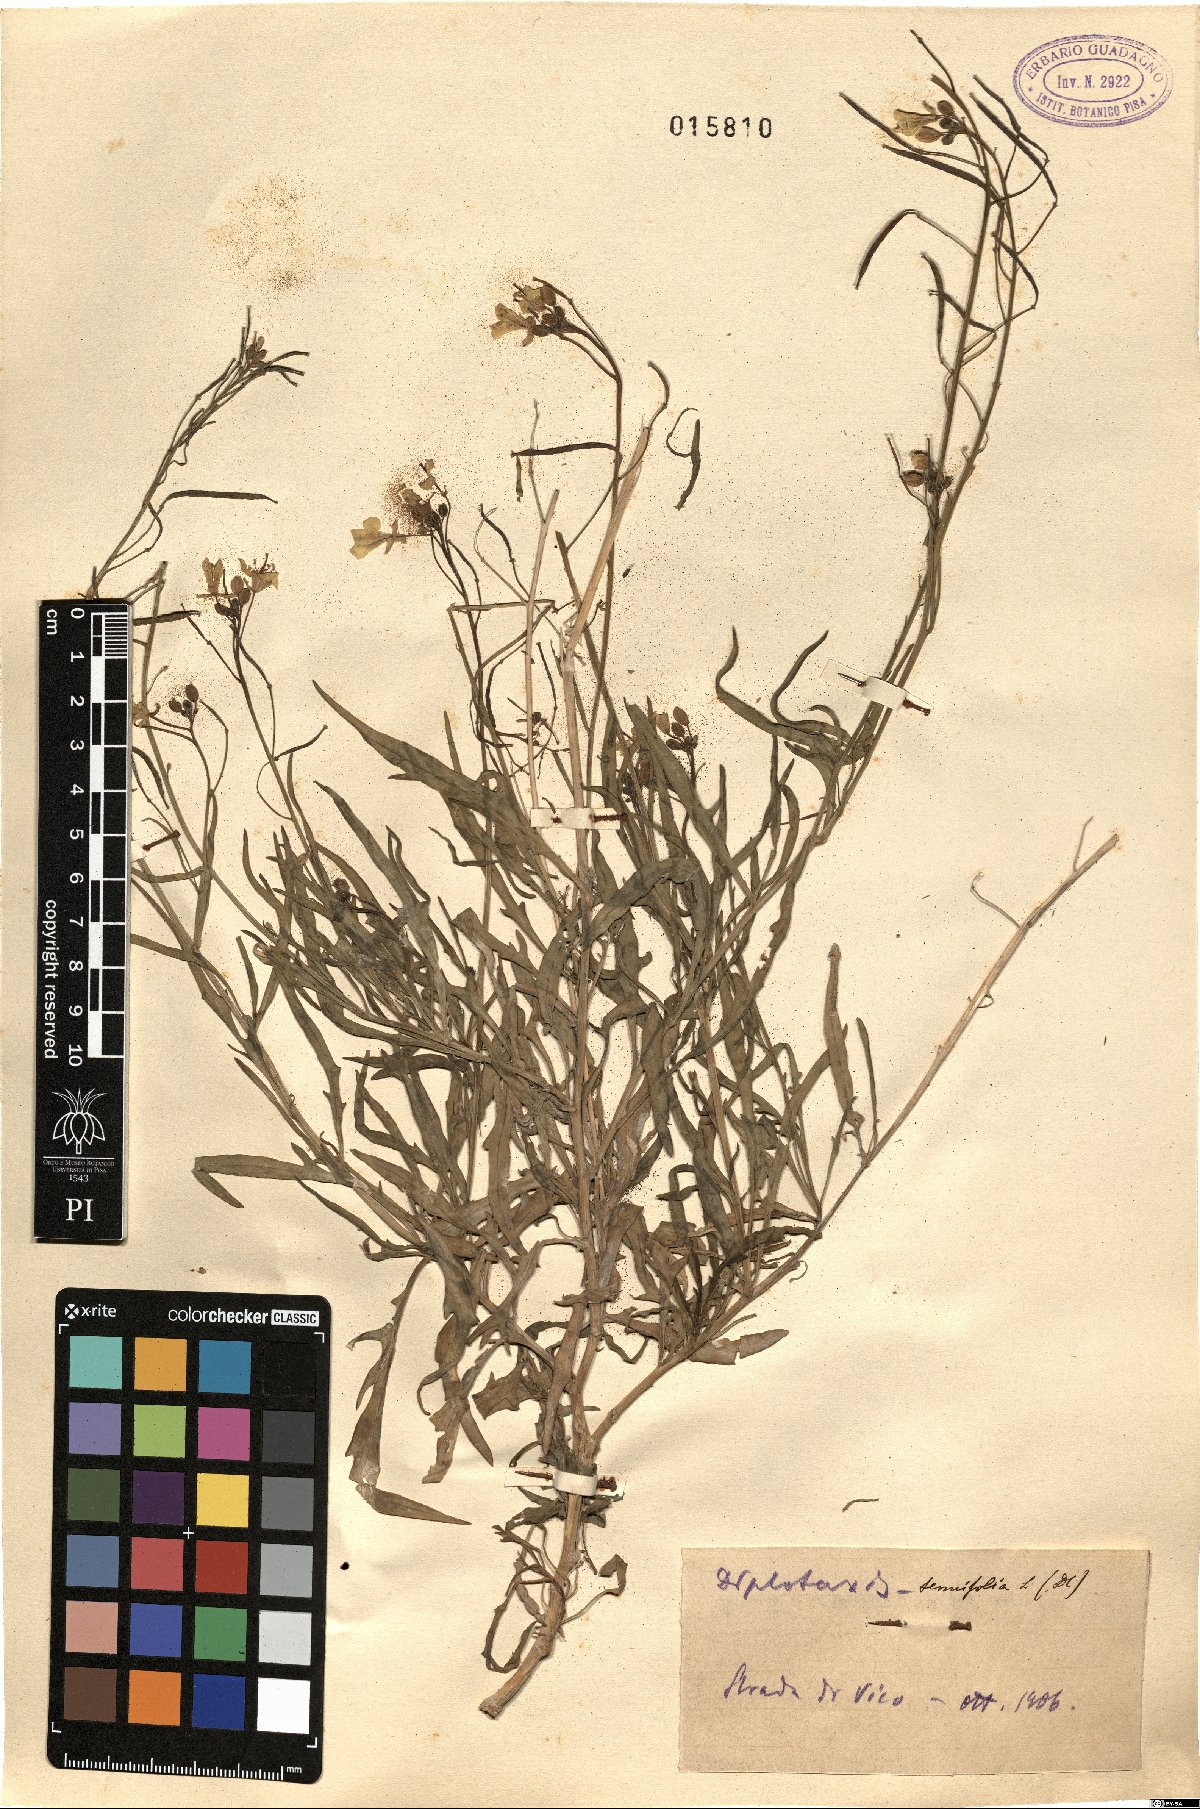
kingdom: Plantae
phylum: Tracheophyta
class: Magnoliopsida
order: Brassicales
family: Brassicaceae
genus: Diplotaxis
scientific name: Diplotaxis tenuifolia
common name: Perennial wall-rocket
